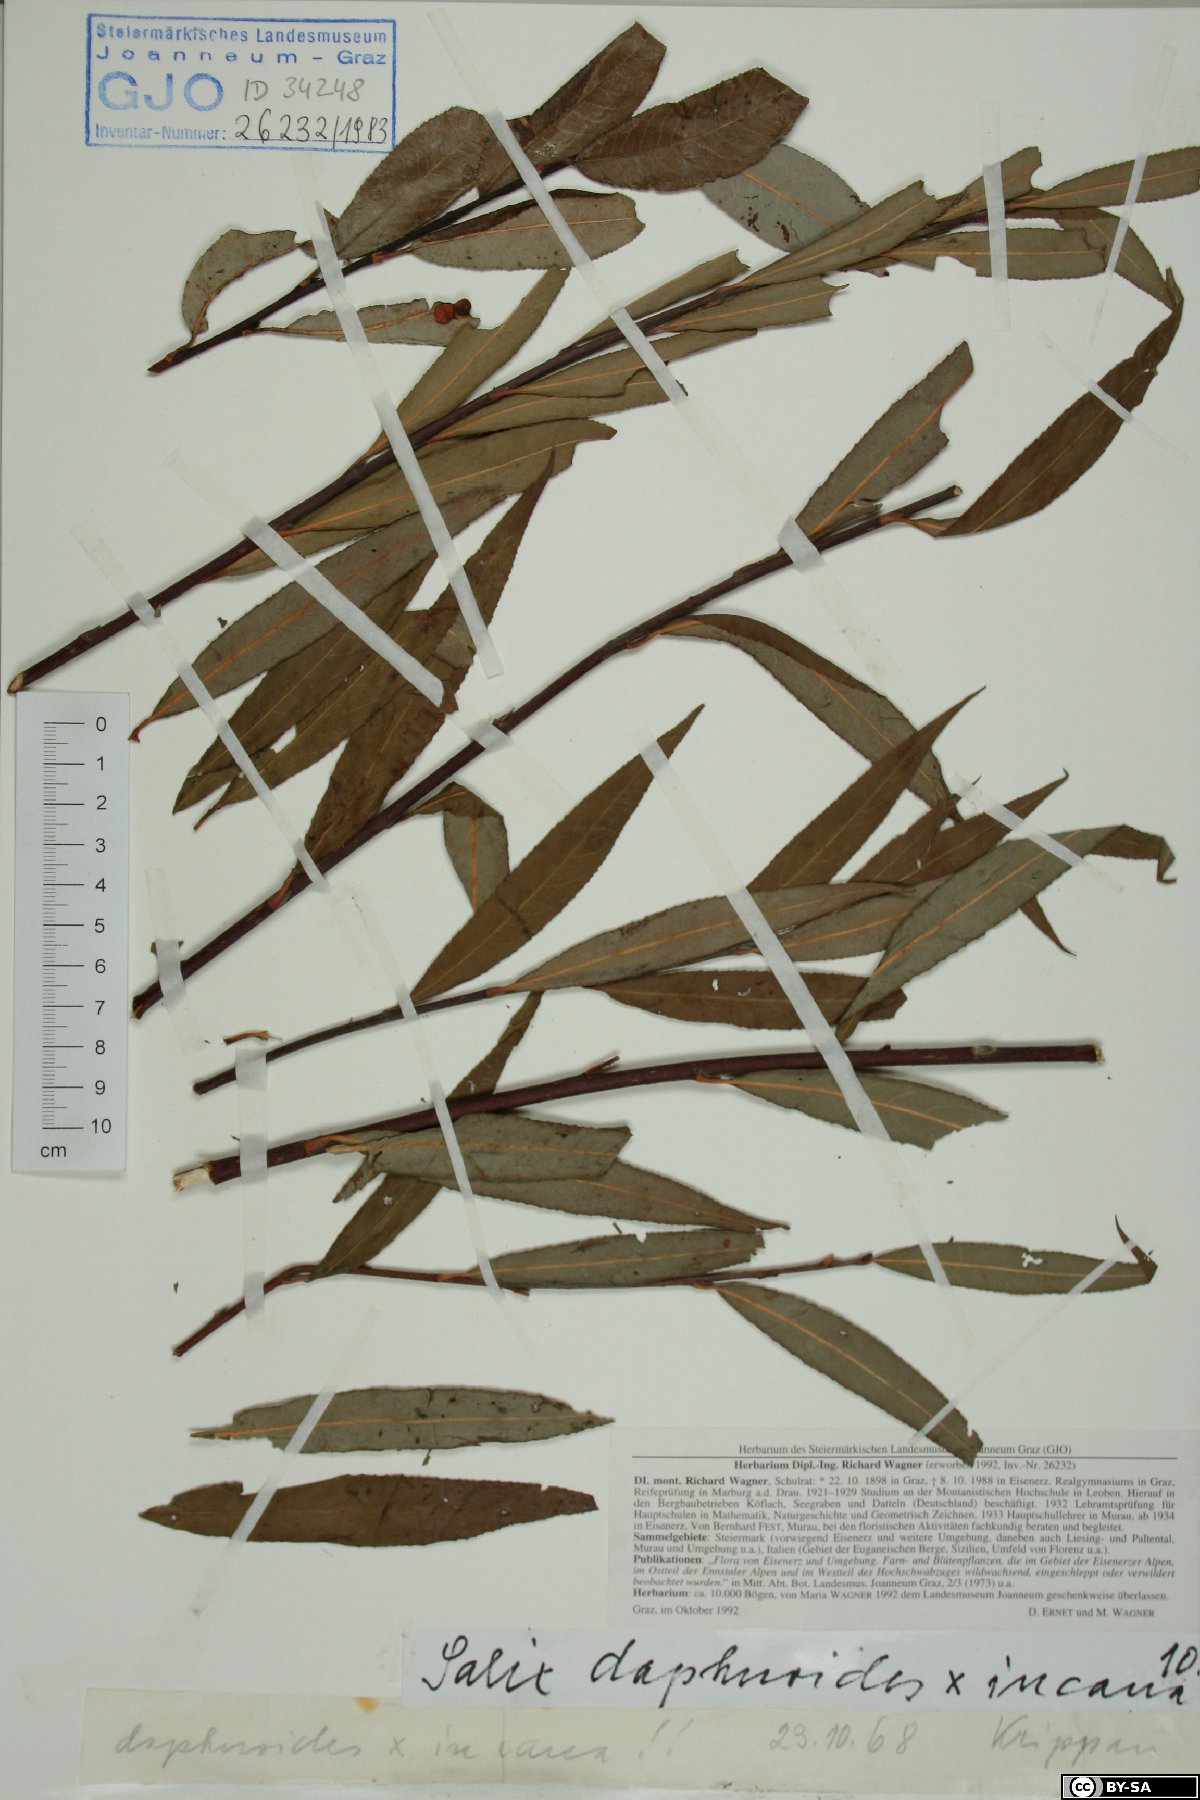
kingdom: Plantae
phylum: Tracheophyta
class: Magnoliopsida
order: Malpighiales
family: Salicaceae
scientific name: Salicaceae
